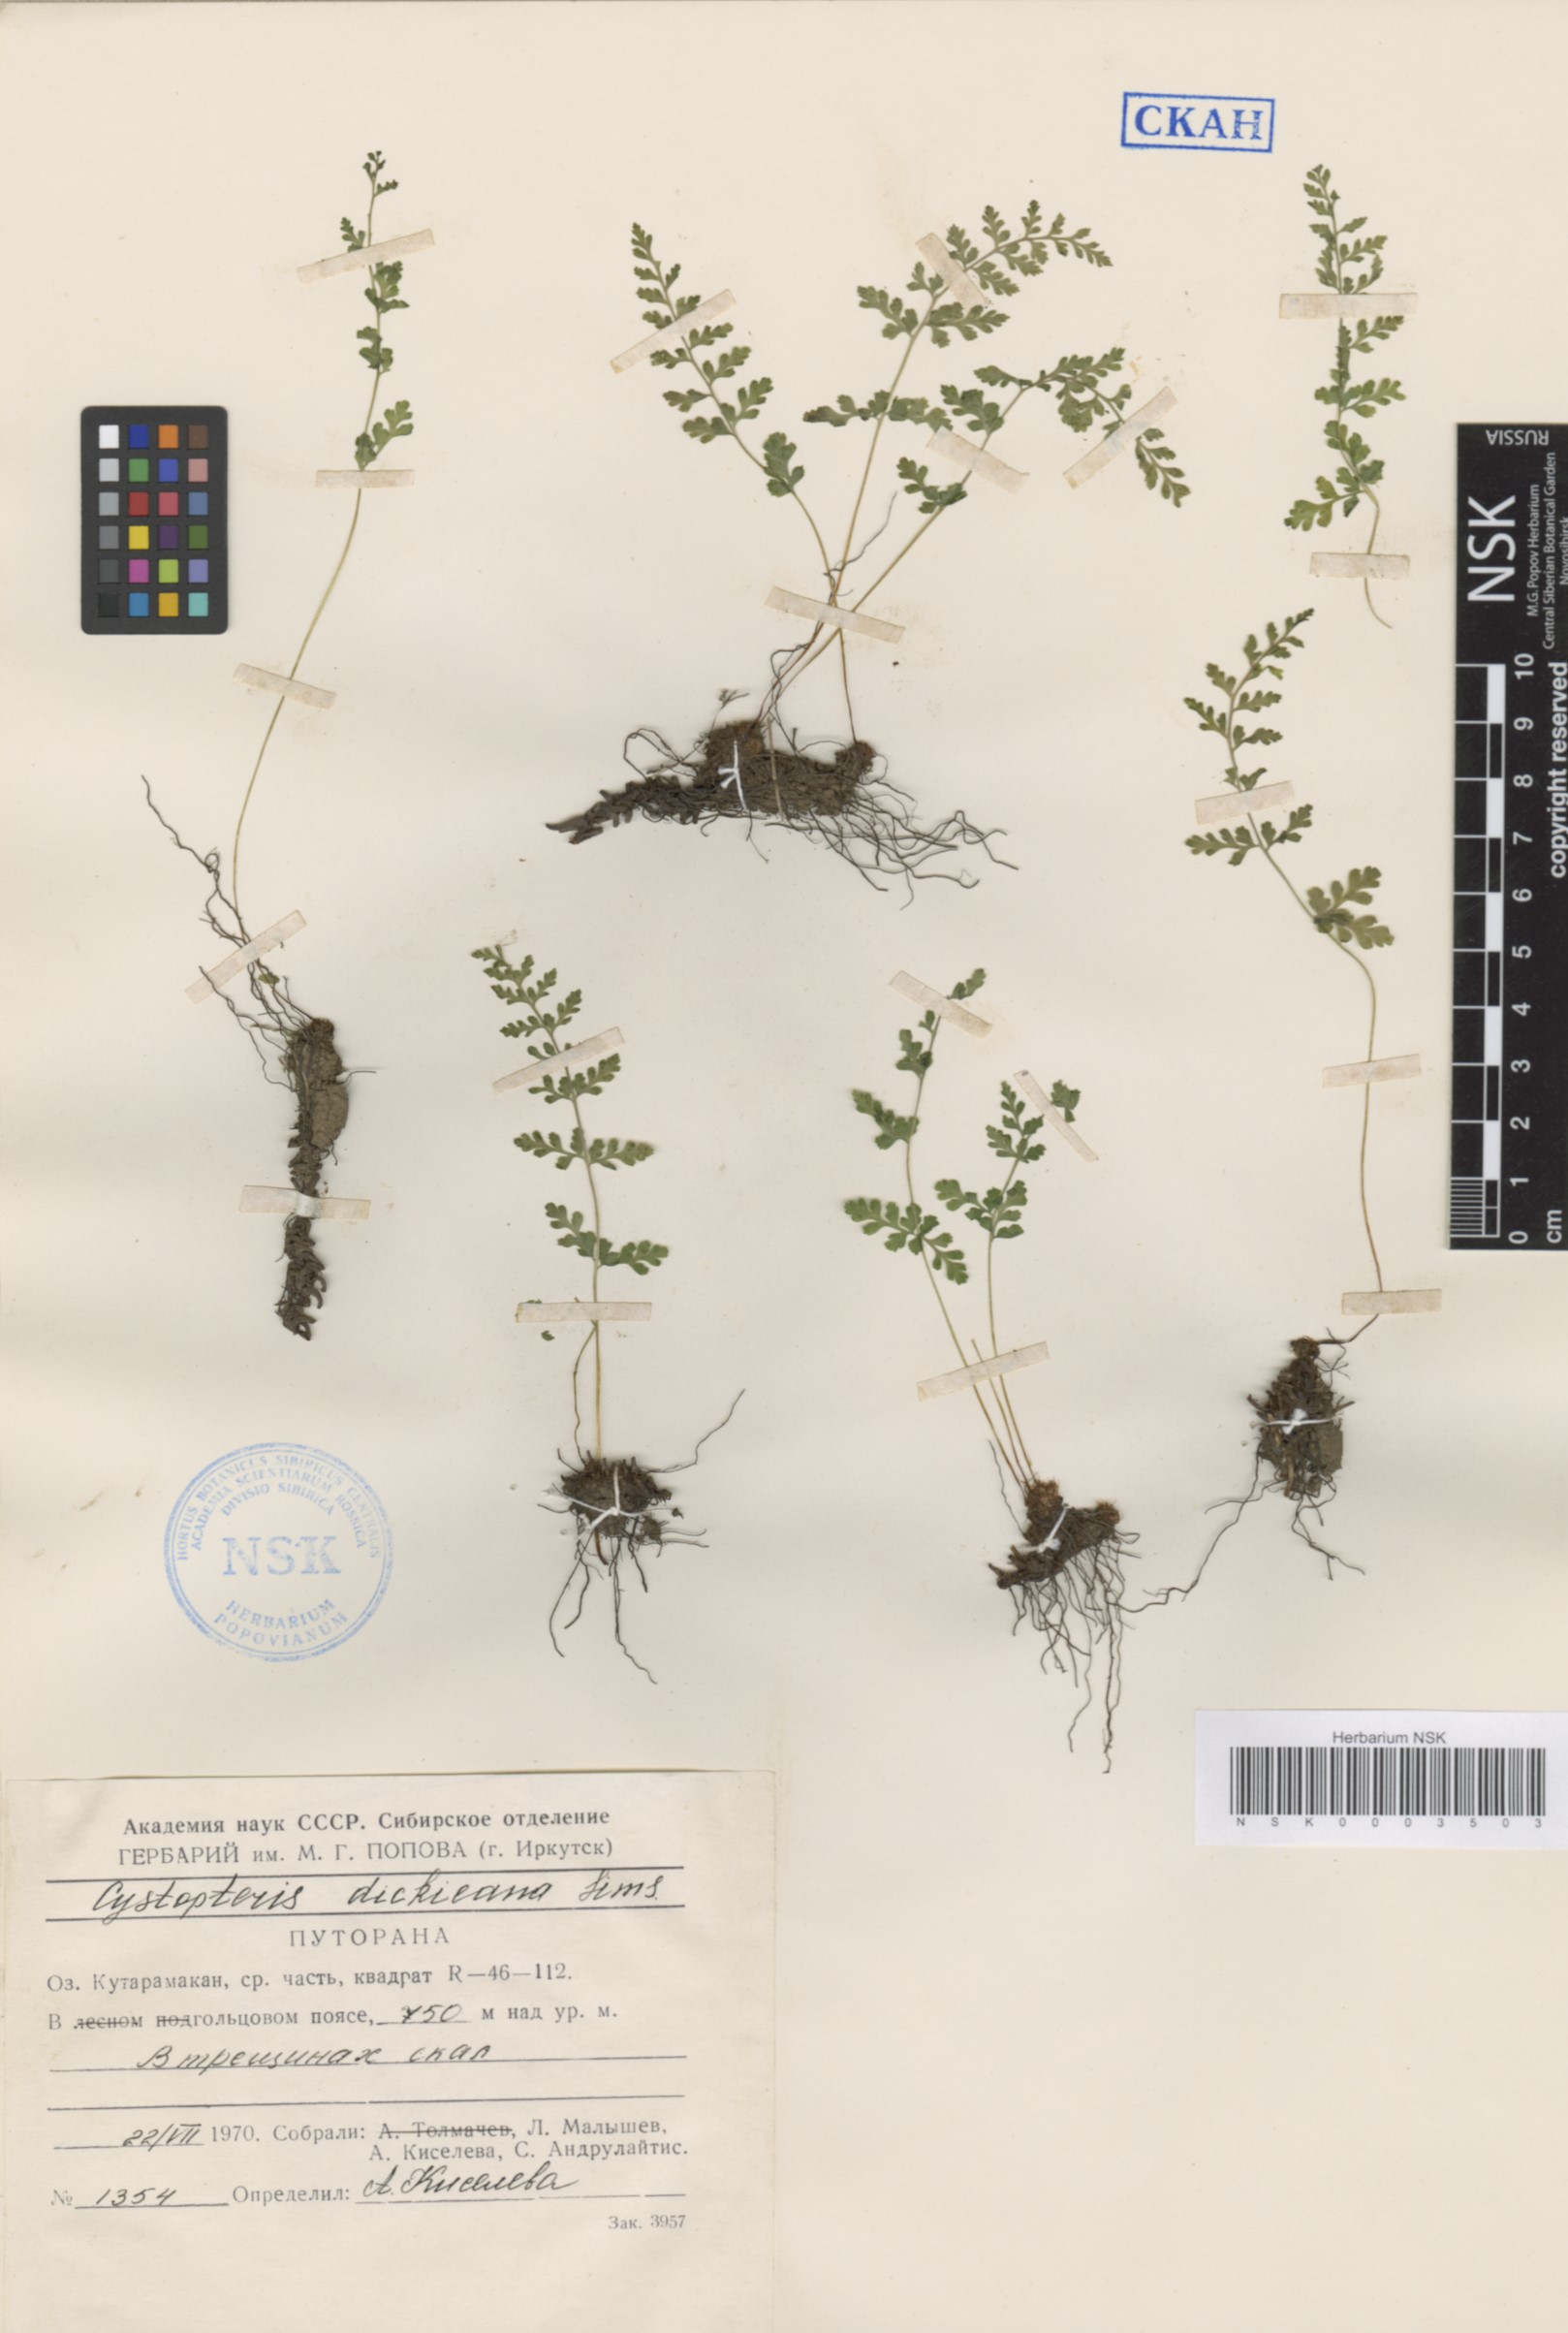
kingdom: Plantae
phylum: Tracheophyta
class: Polypodiopsida
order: Polypodiales
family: Cystopteridaceae
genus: Cystopteris
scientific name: Cystopteris dickieana
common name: Dickie's bladder-fern
